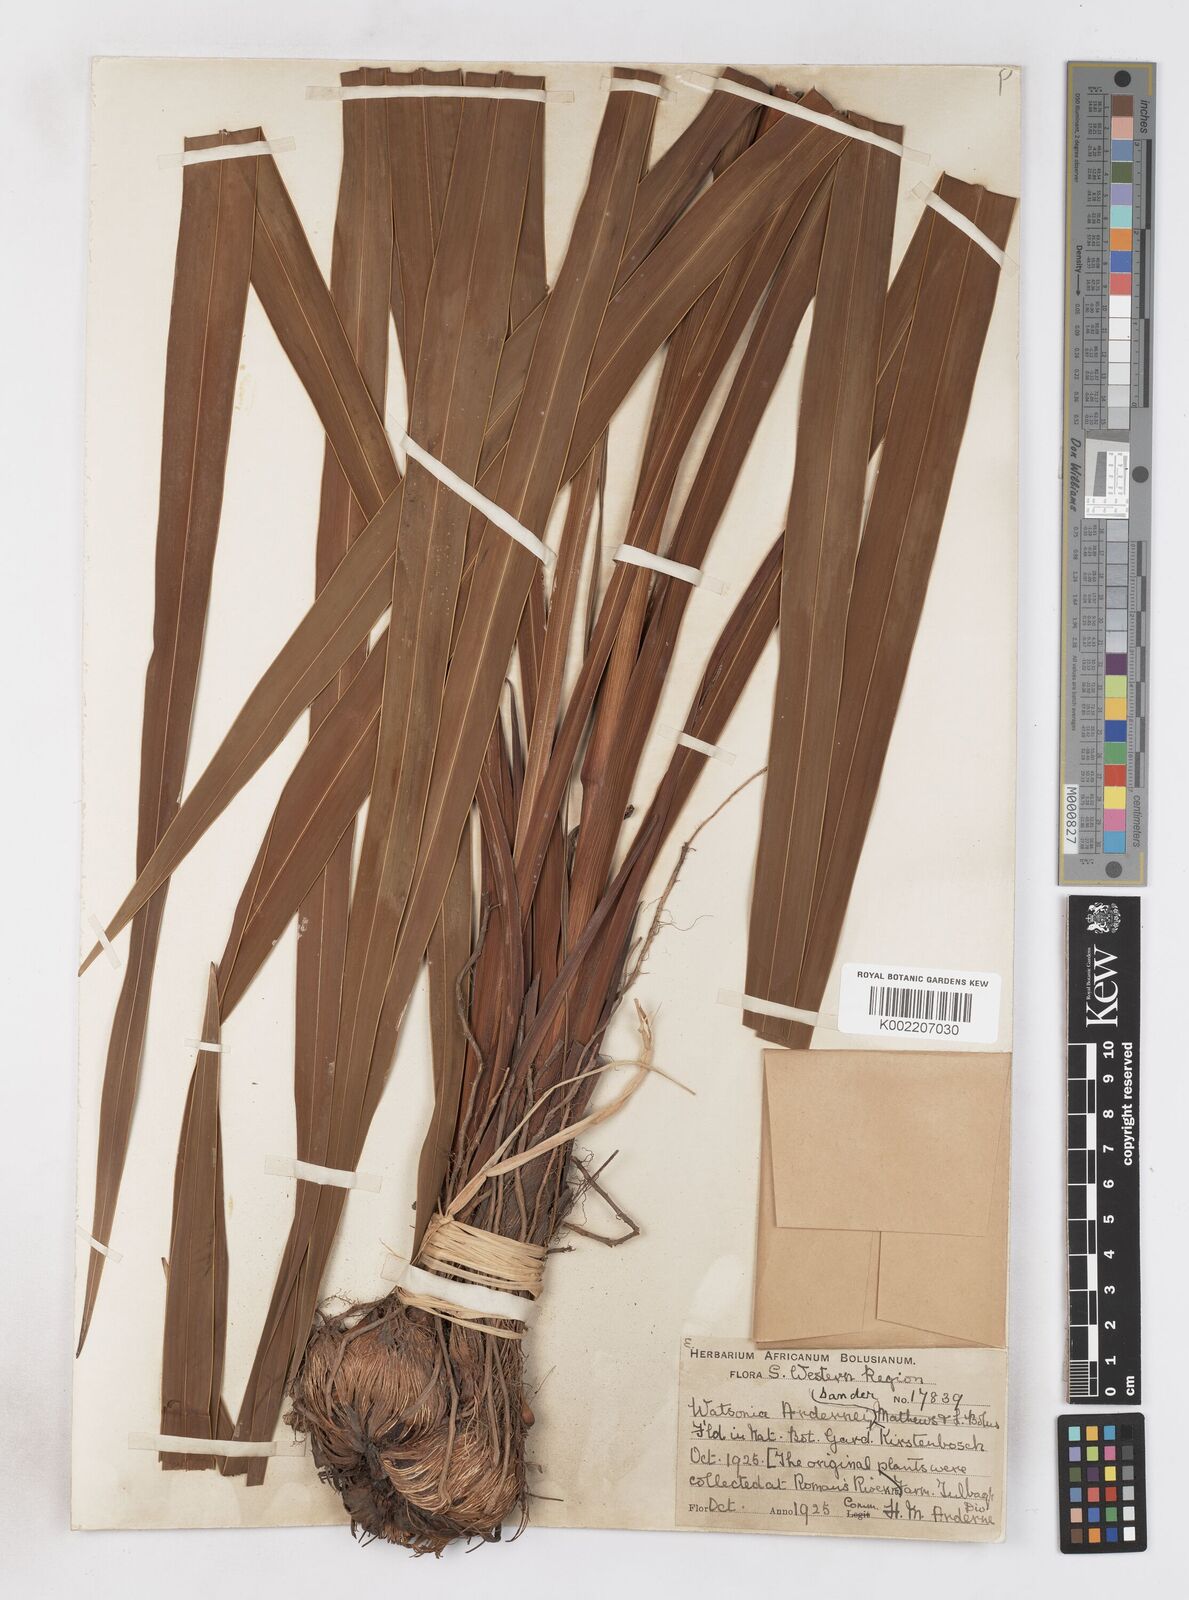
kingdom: Plantae
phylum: Tracheophyta
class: Liliopsida
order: Asparagales
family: Iridaceae
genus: Watsonia
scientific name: Watsonia borbonica
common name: Bugle-lily
